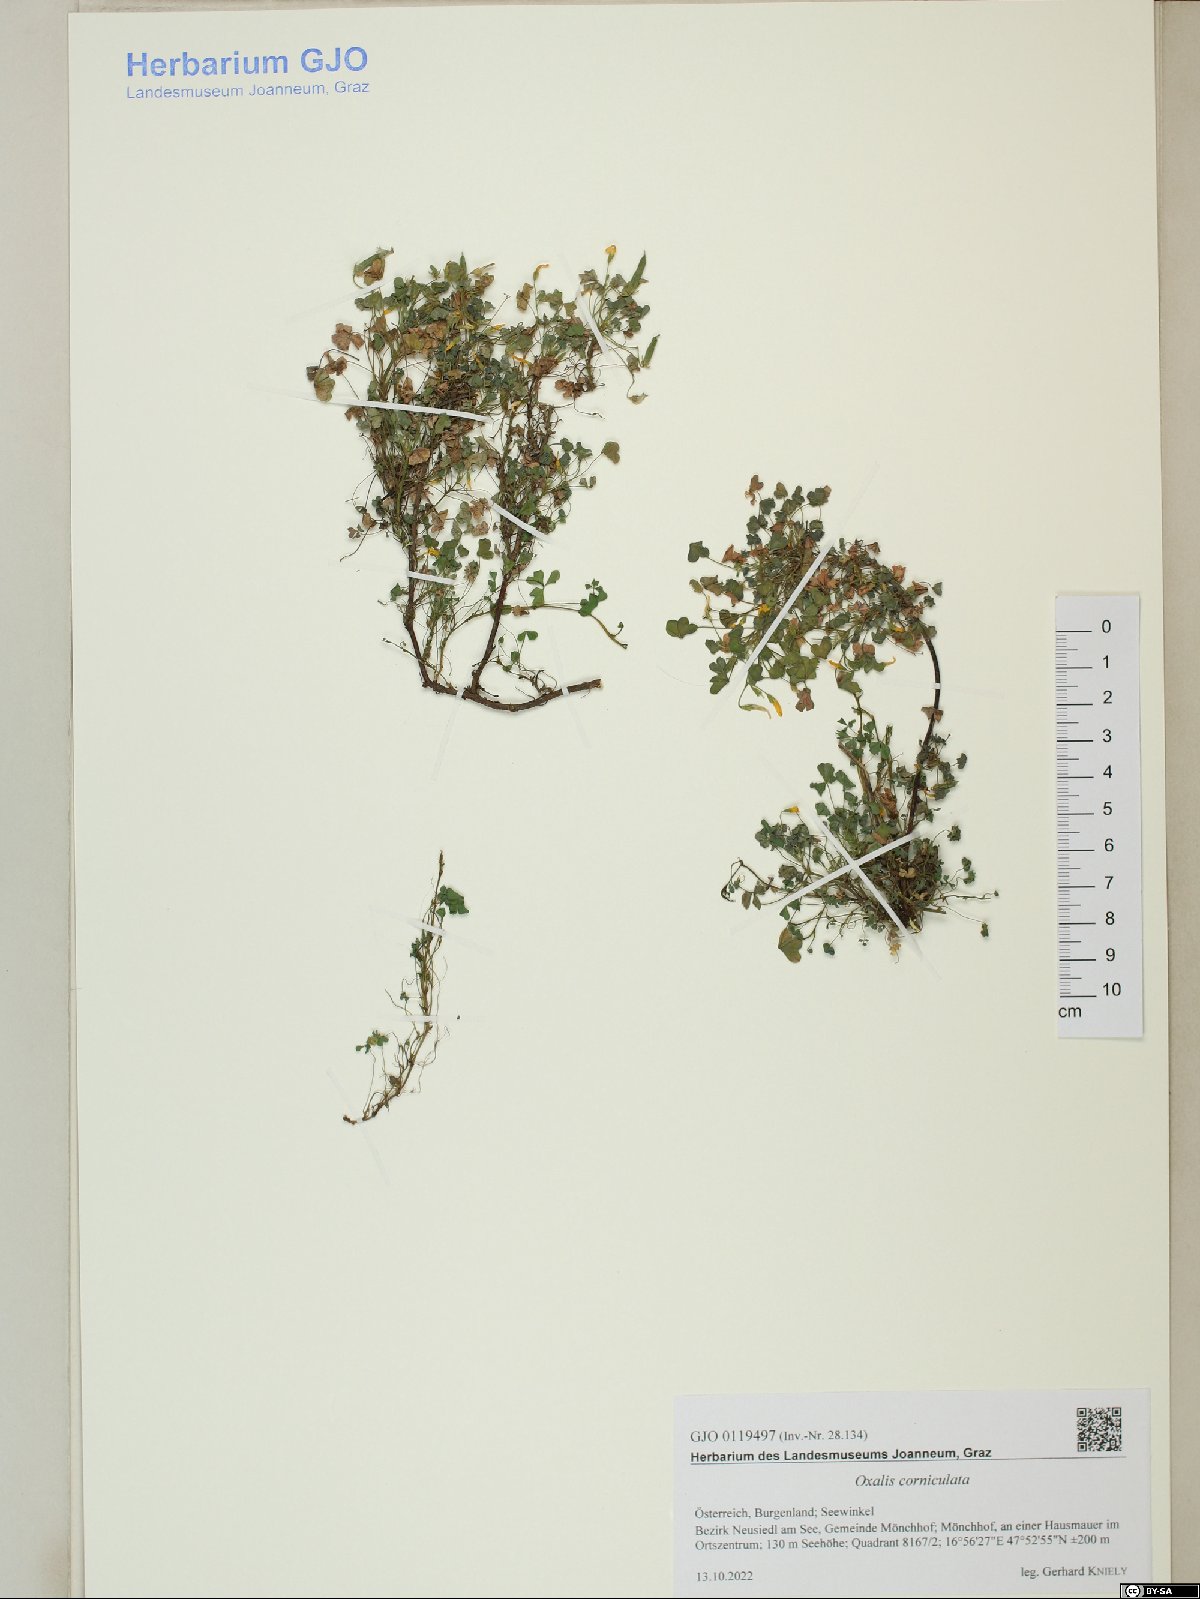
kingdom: Plantae
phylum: Tracheophyta
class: Magnoliopsida
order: Oxalidales
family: Oxalidaceae
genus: Oxalis
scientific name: Oxalis corniculata
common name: Procumbent yellow-sorrel
